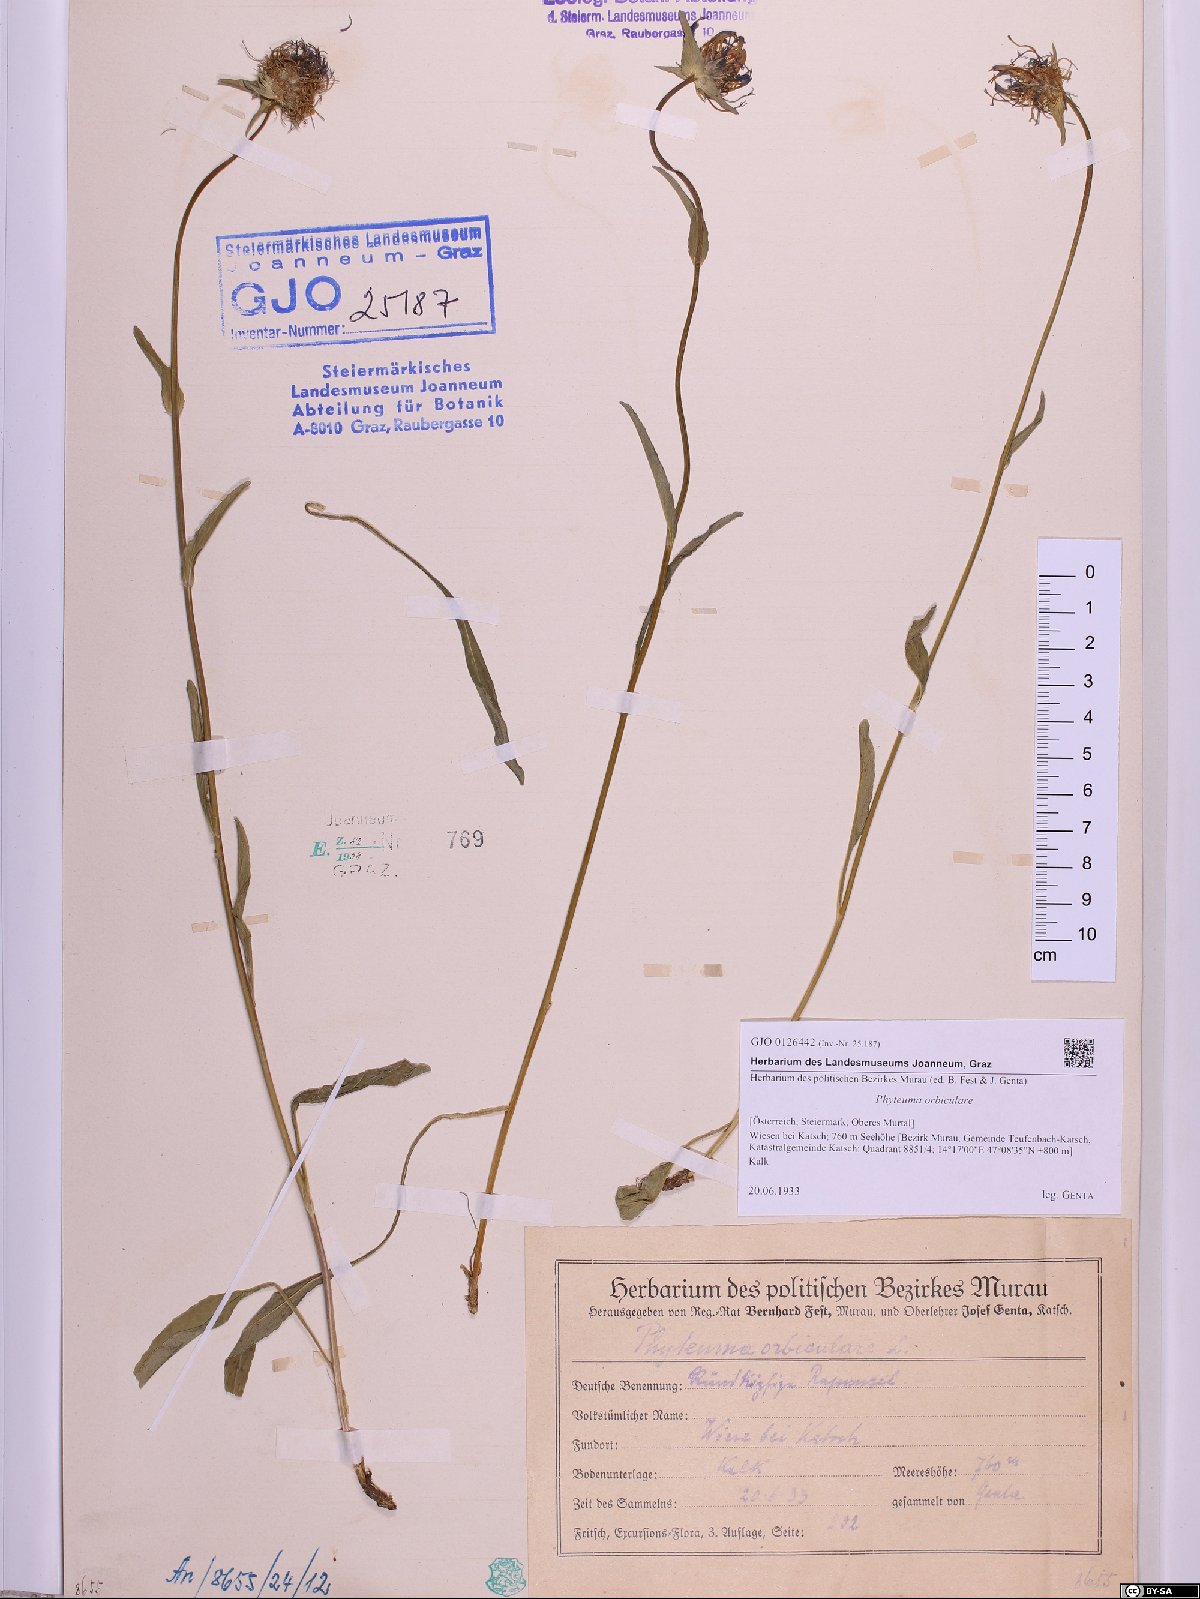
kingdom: Plantae
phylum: Tracheophyta
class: Magnoliopsida
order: Asterales
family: Campanulaceae
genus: Phyteuma
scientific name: Phyteuma orbiculare
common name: Round-headed rampion
